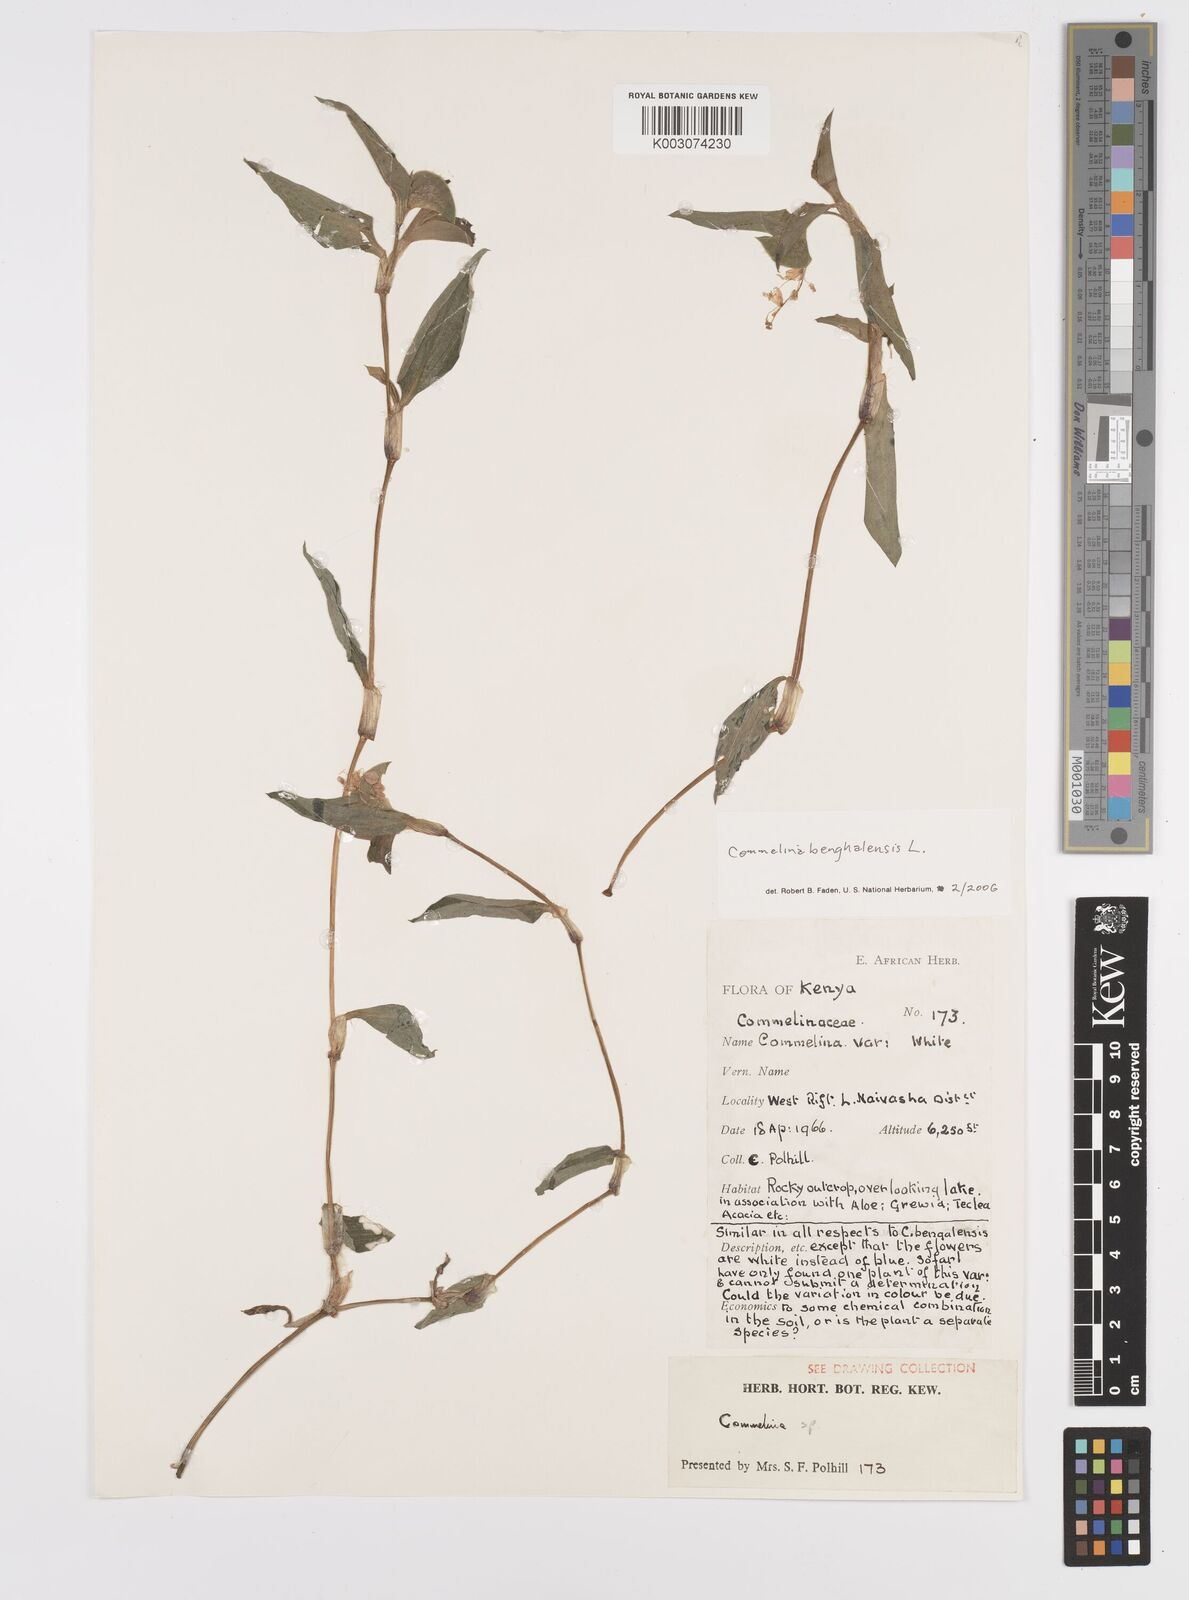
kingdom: Plantae
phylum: Tracheophyta
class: Liliopsida
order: Commelinales
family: Commelinaceae
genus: Commelina
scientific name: Commelina benghalensis
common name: Jio
